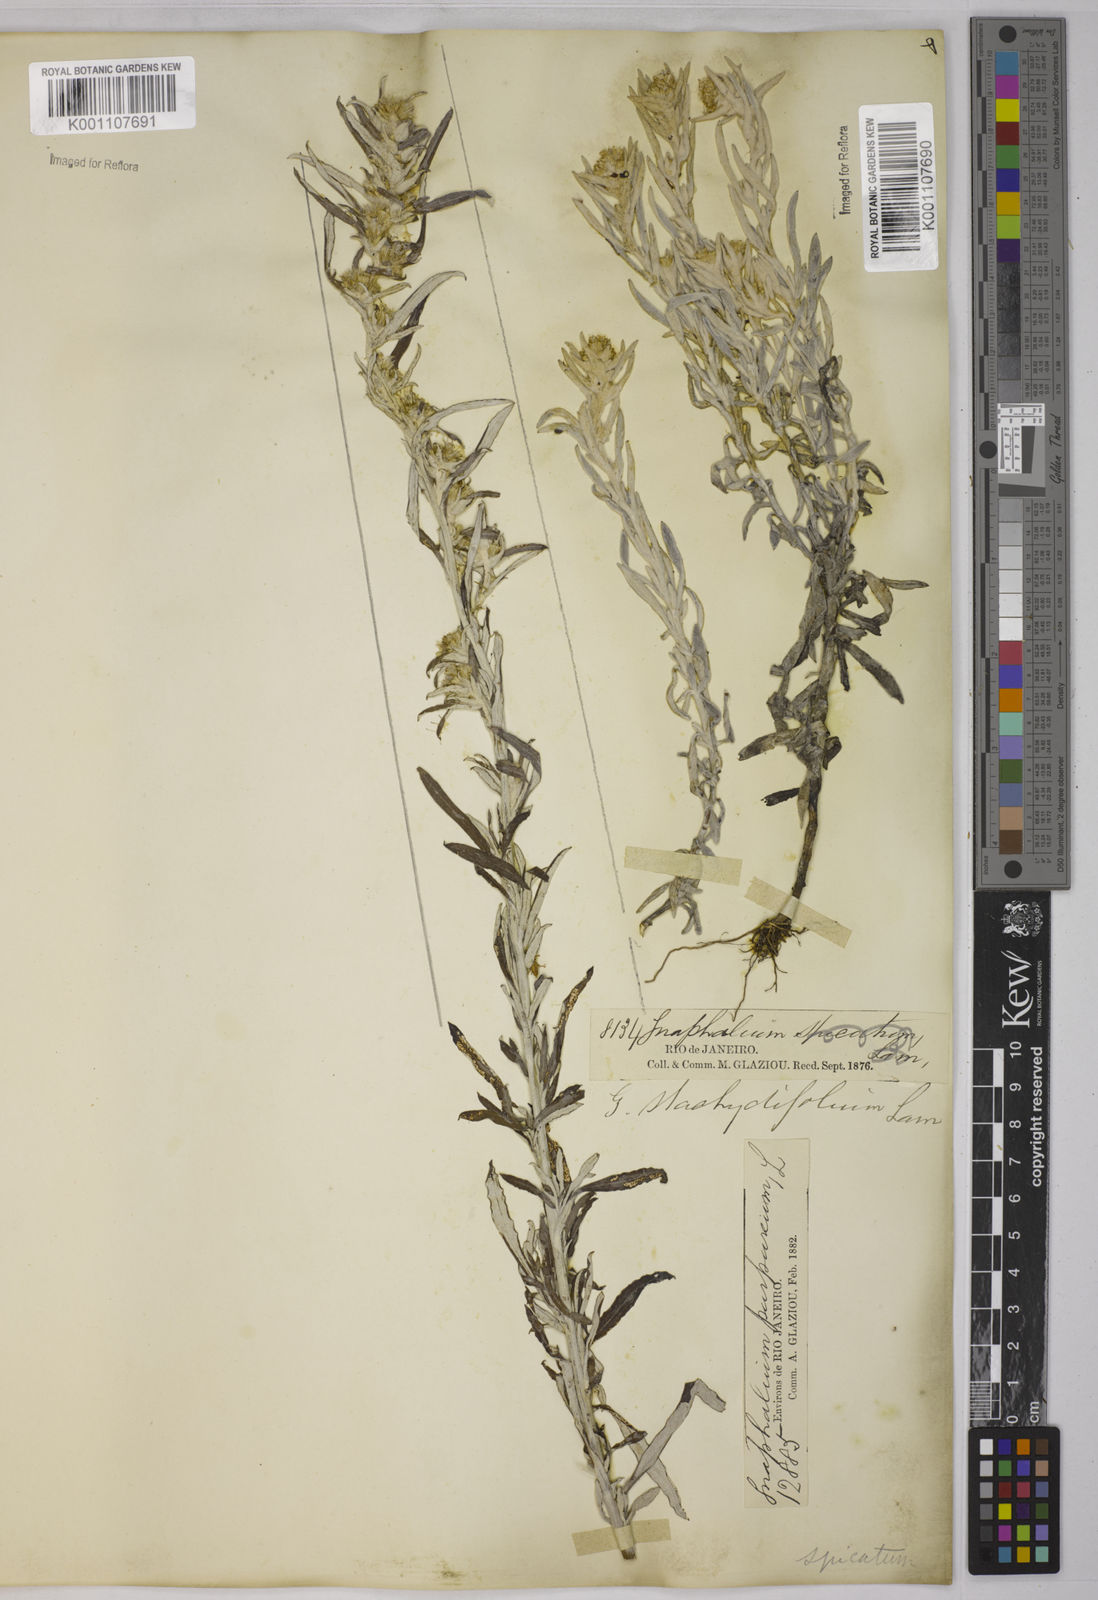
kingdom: Plantae
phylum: Tracheophyta
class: Magnoliopsida
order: Asterales
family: Asteraceae
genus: Gamochaeta
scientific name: Gamochaeta purpurea
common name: Purple cudweed
